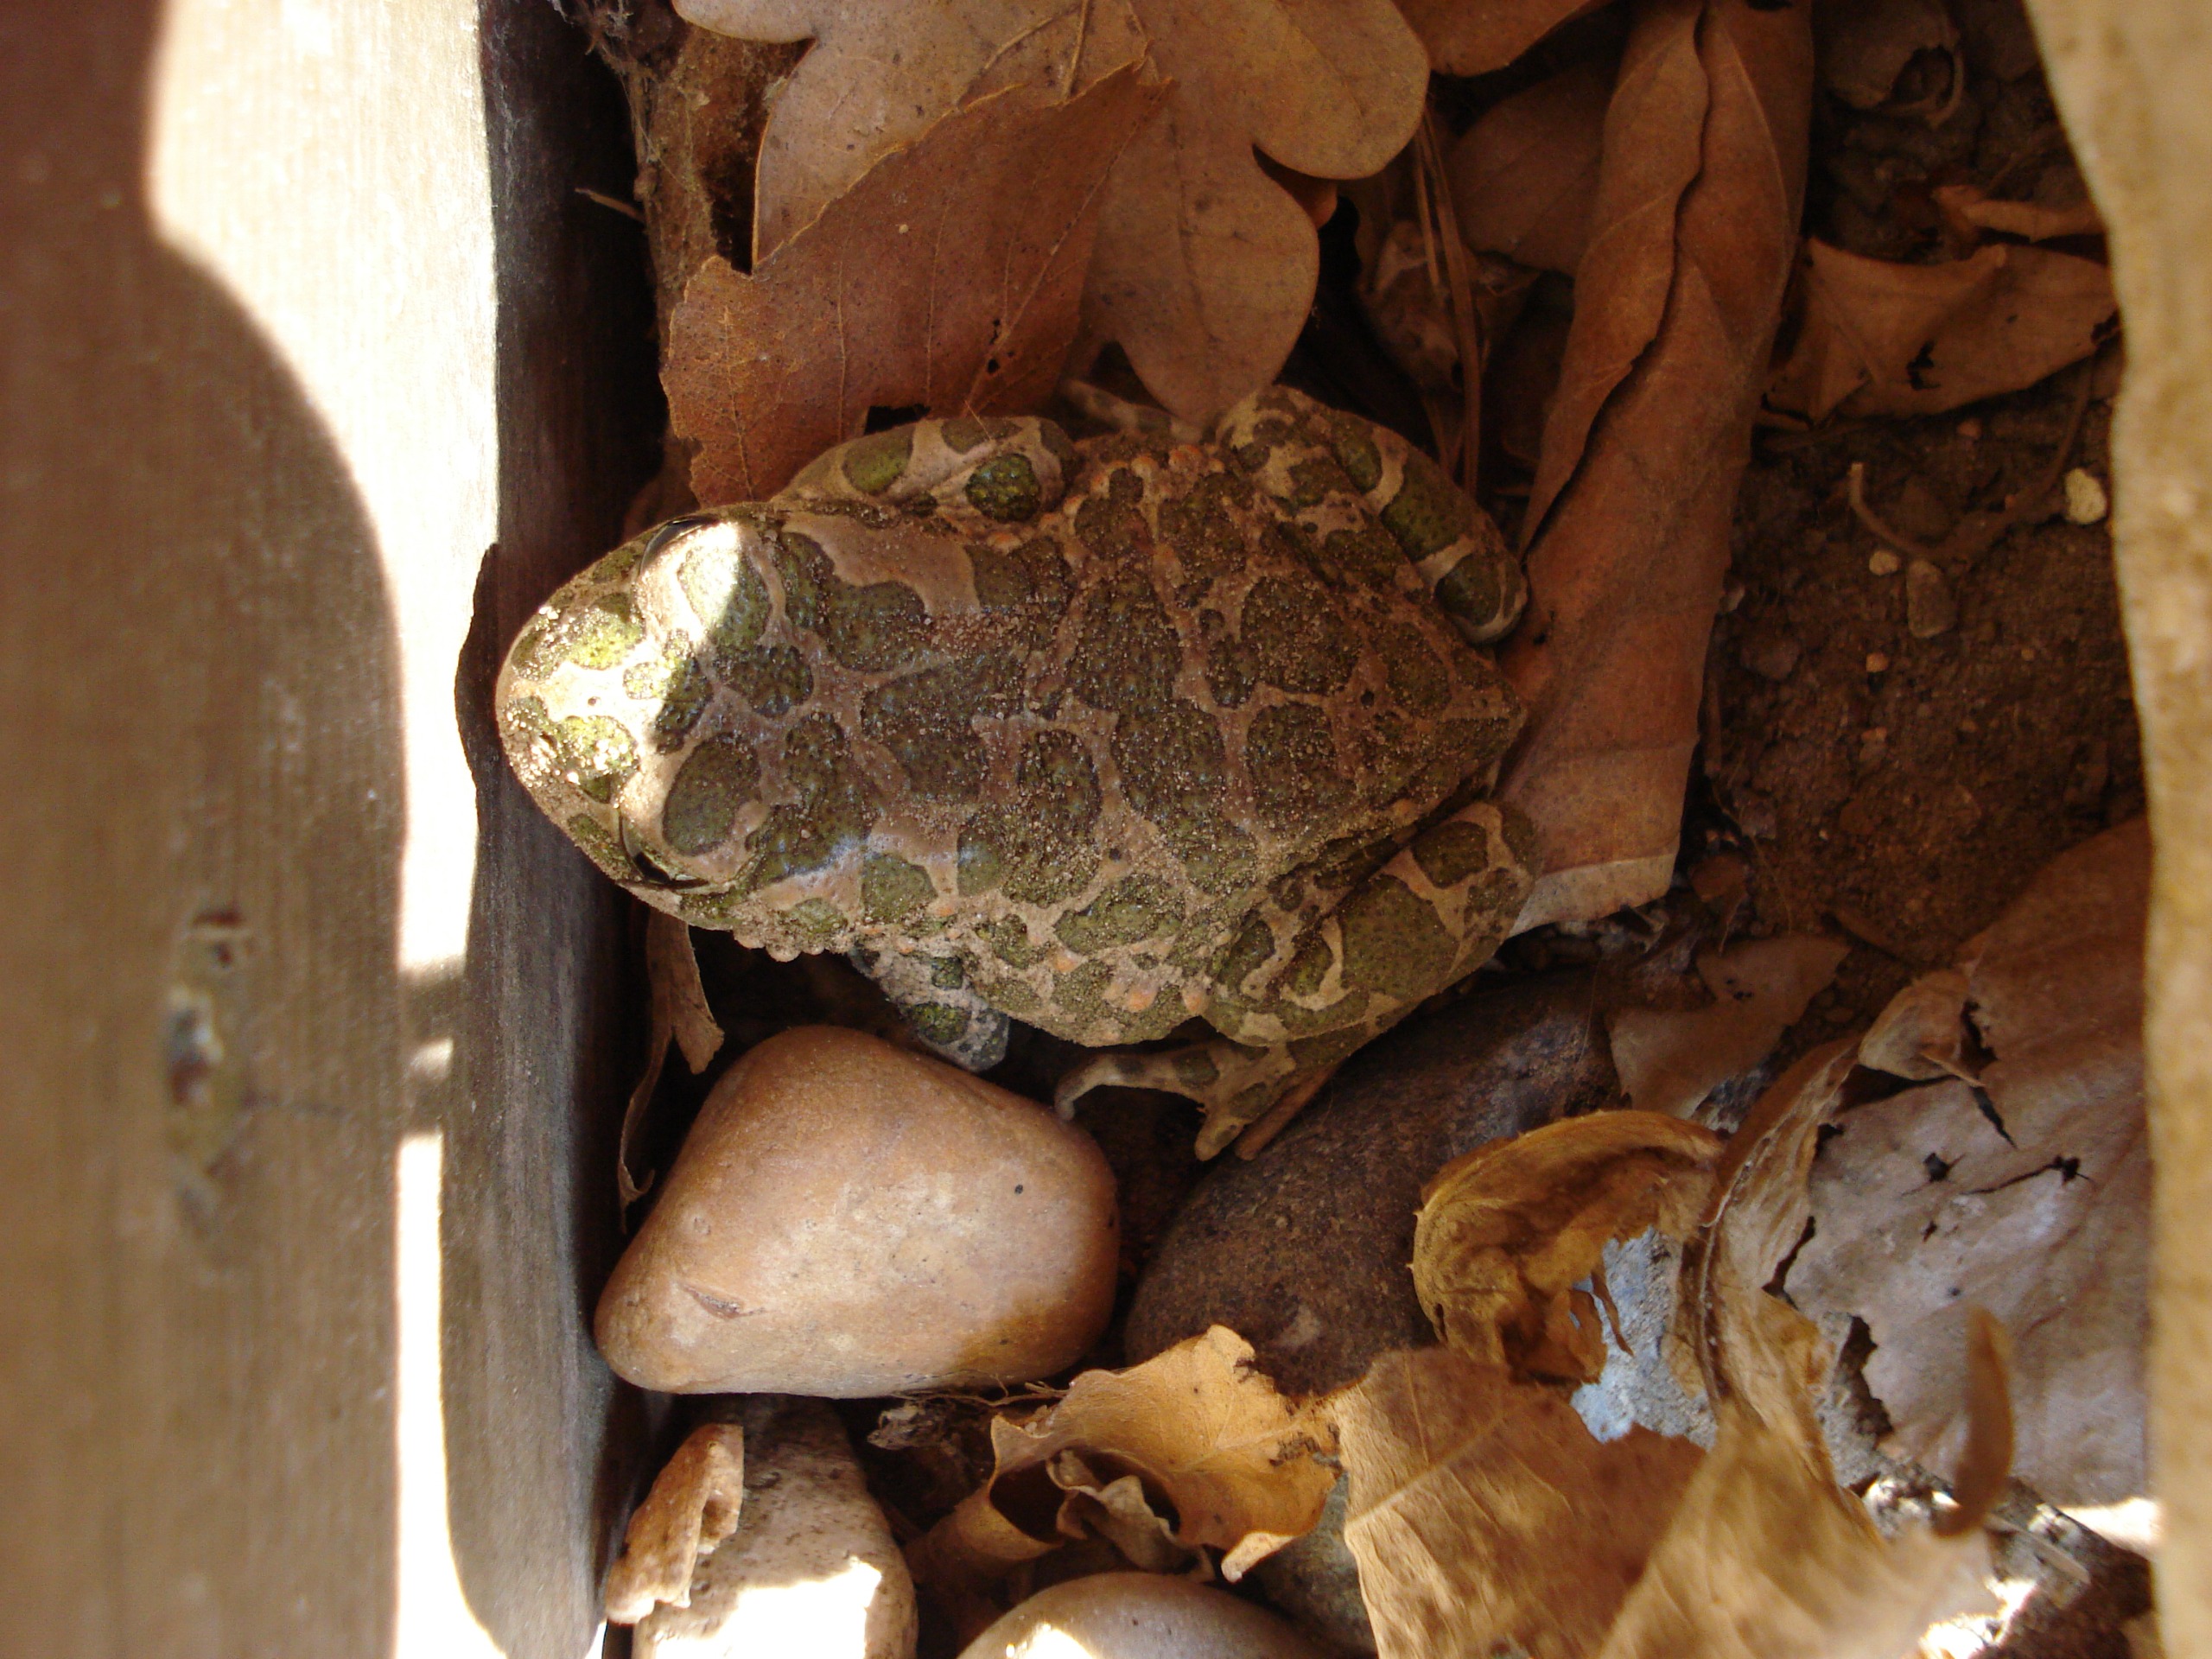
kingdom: Animalia
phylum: Chordata
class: Amphibia
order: Anura
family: Bufonidae
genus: Bufotes
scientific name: Bufotes viridis
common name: Grønbroget tudse
